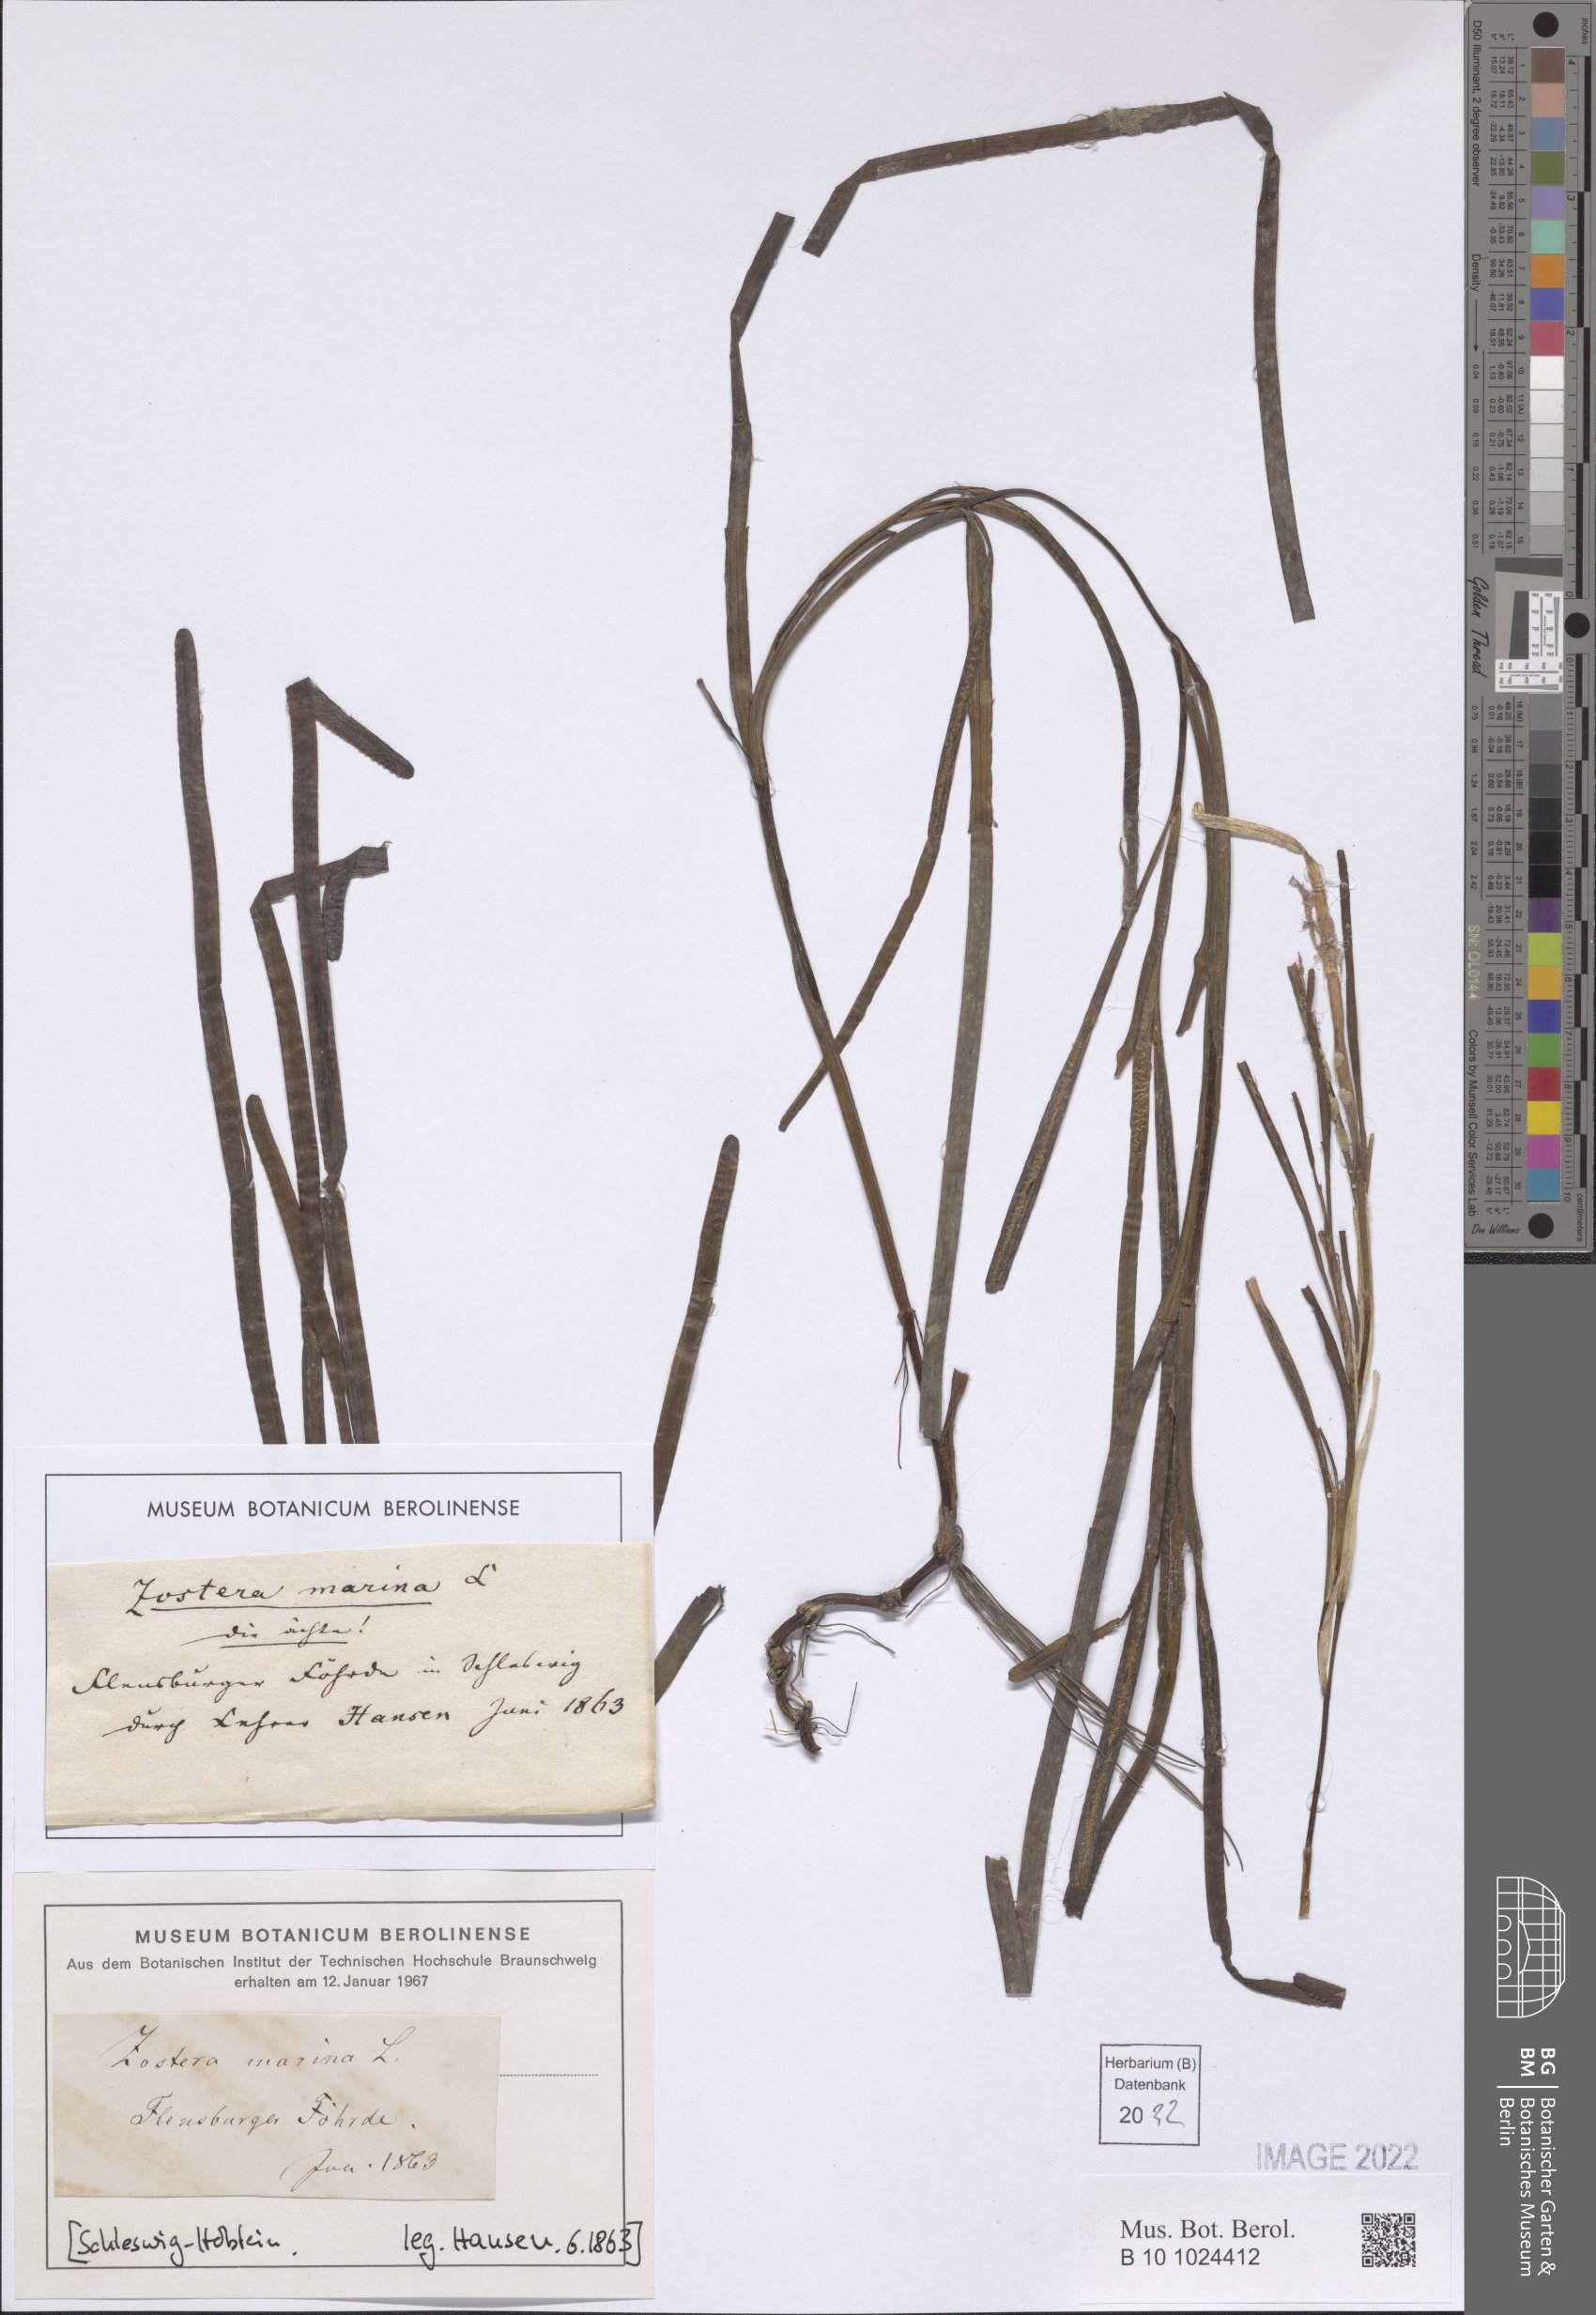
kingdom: Plantae
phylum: Tracheophyta
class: Liliopsida
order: Alismatales
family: Zosteraceae
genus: Zostera
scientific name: Zostera marina
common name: Eelgrass
